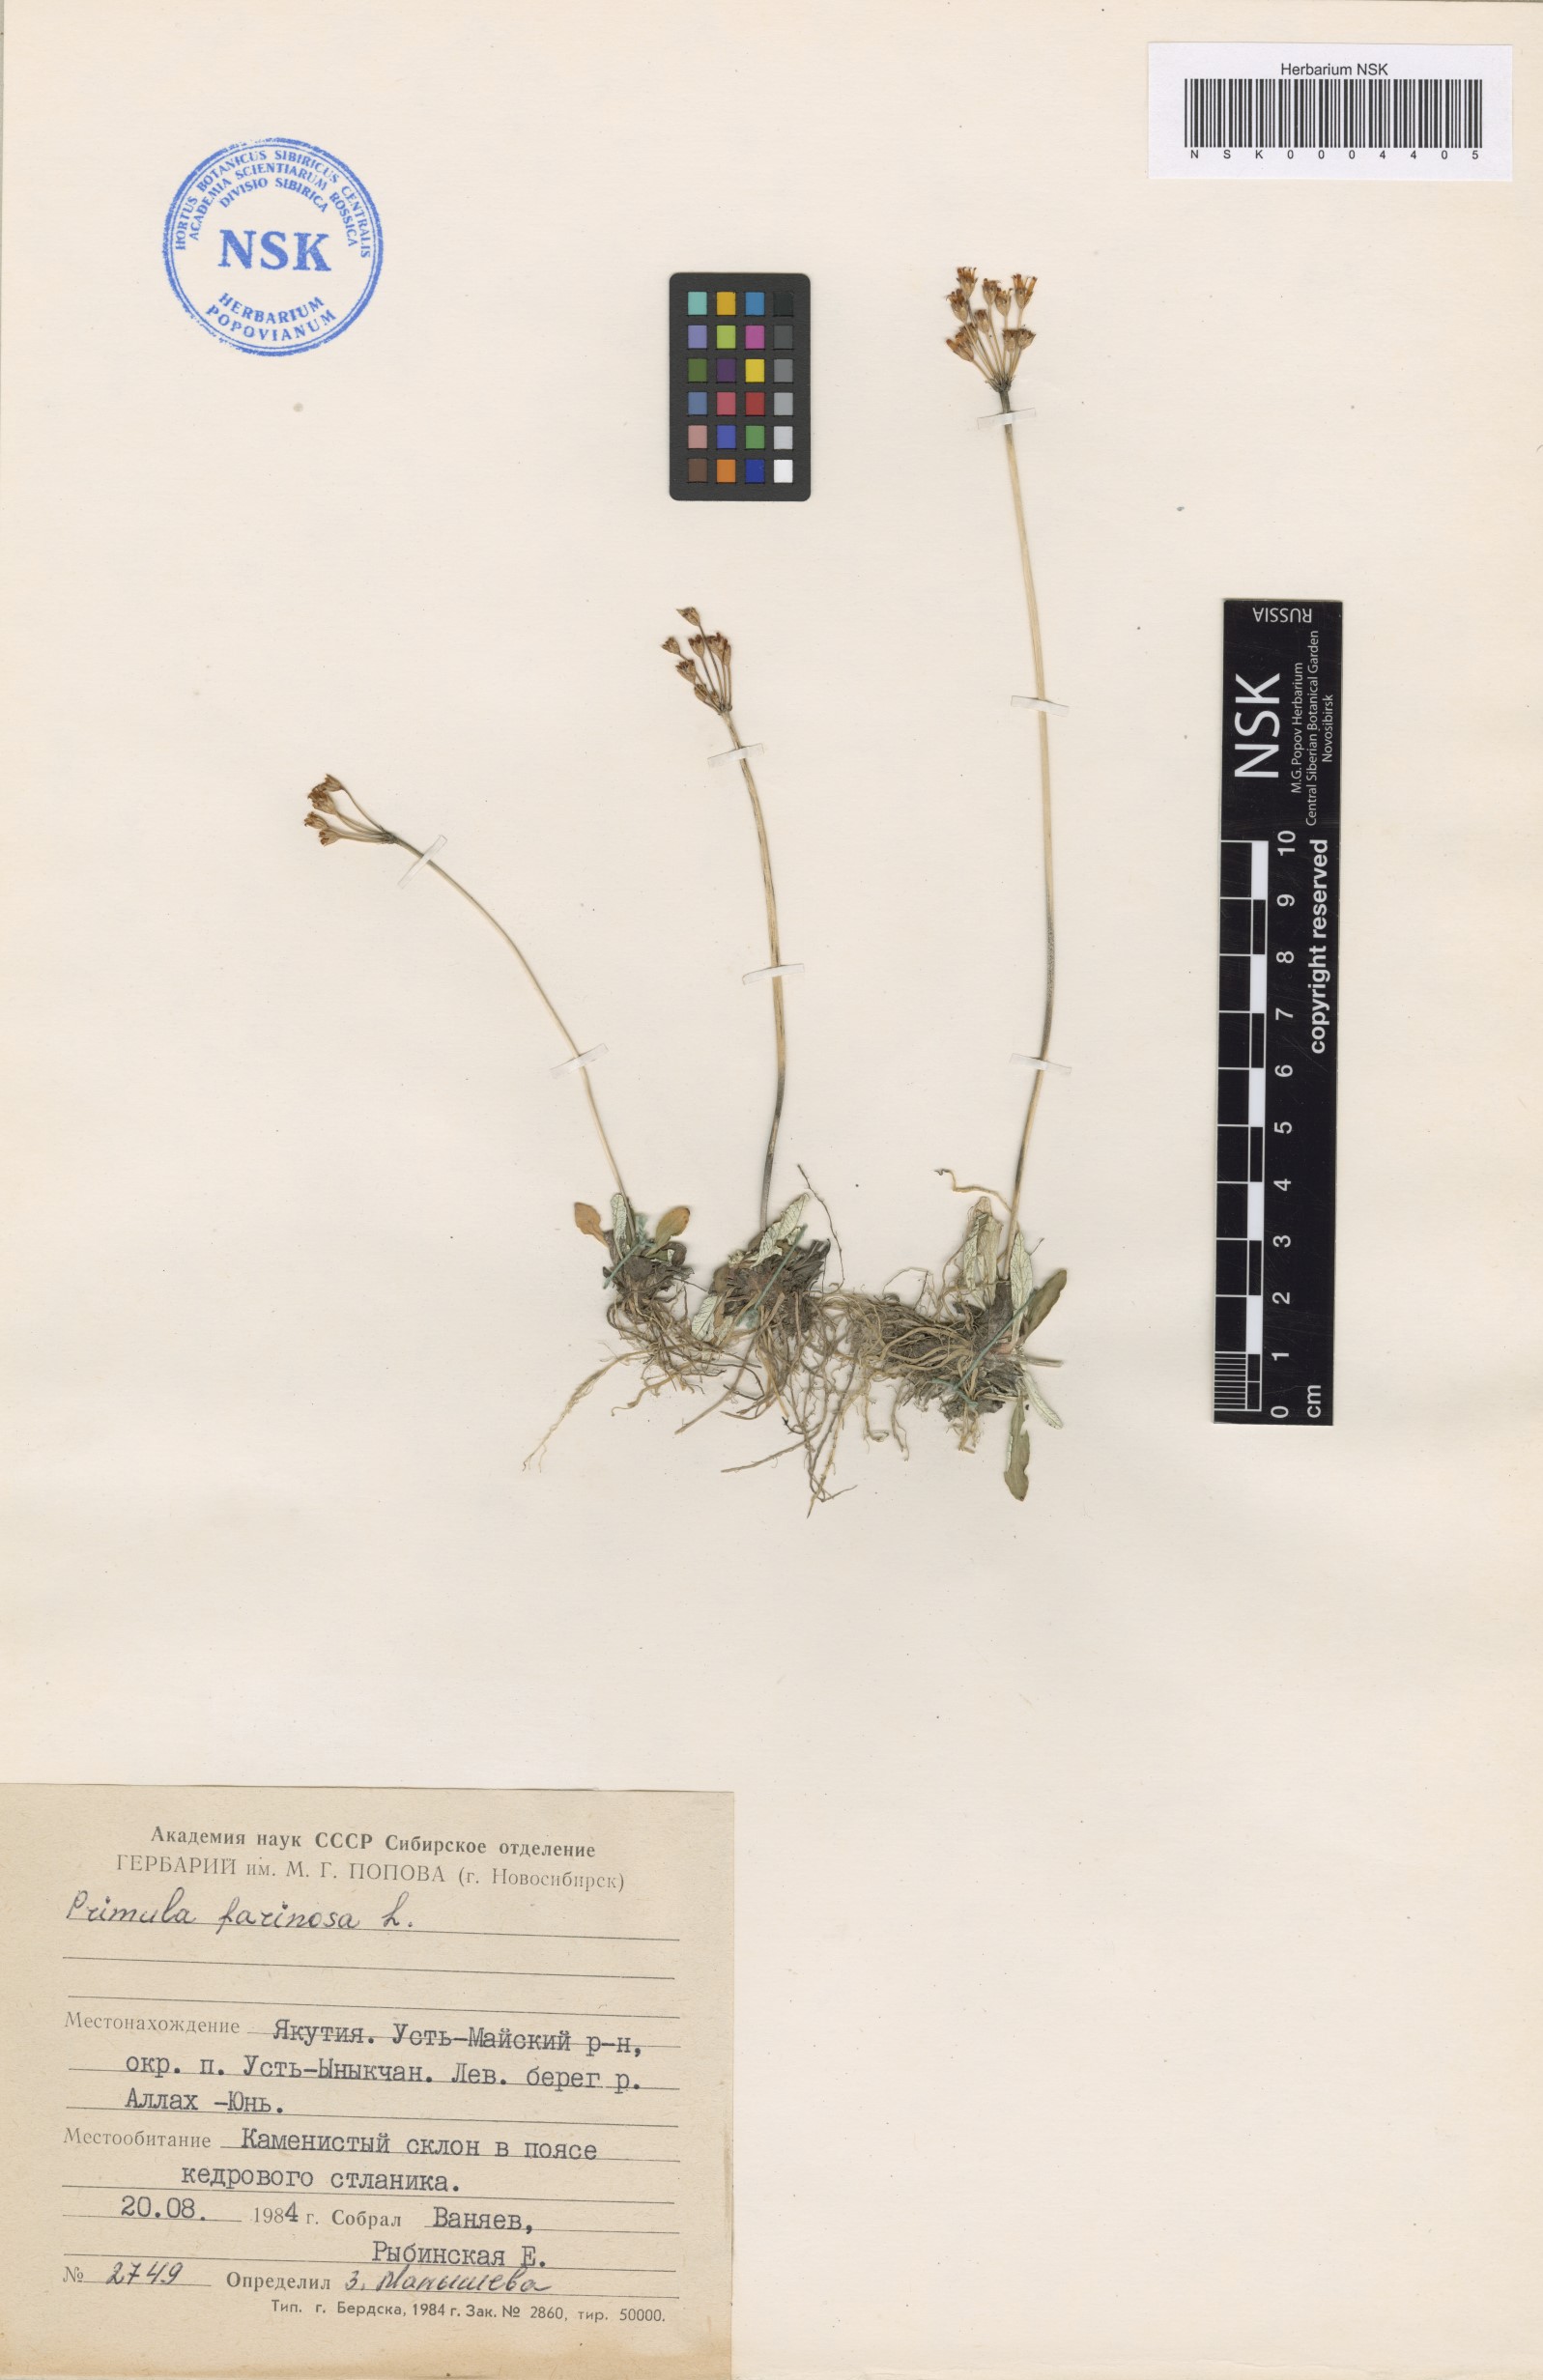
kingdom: Plantae
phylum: Tracheophyta
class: Magnoliopsida
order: Ericales
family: Primulaceae
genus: Primula
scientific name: Primula farinosa
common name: Bird's-eye primrose
